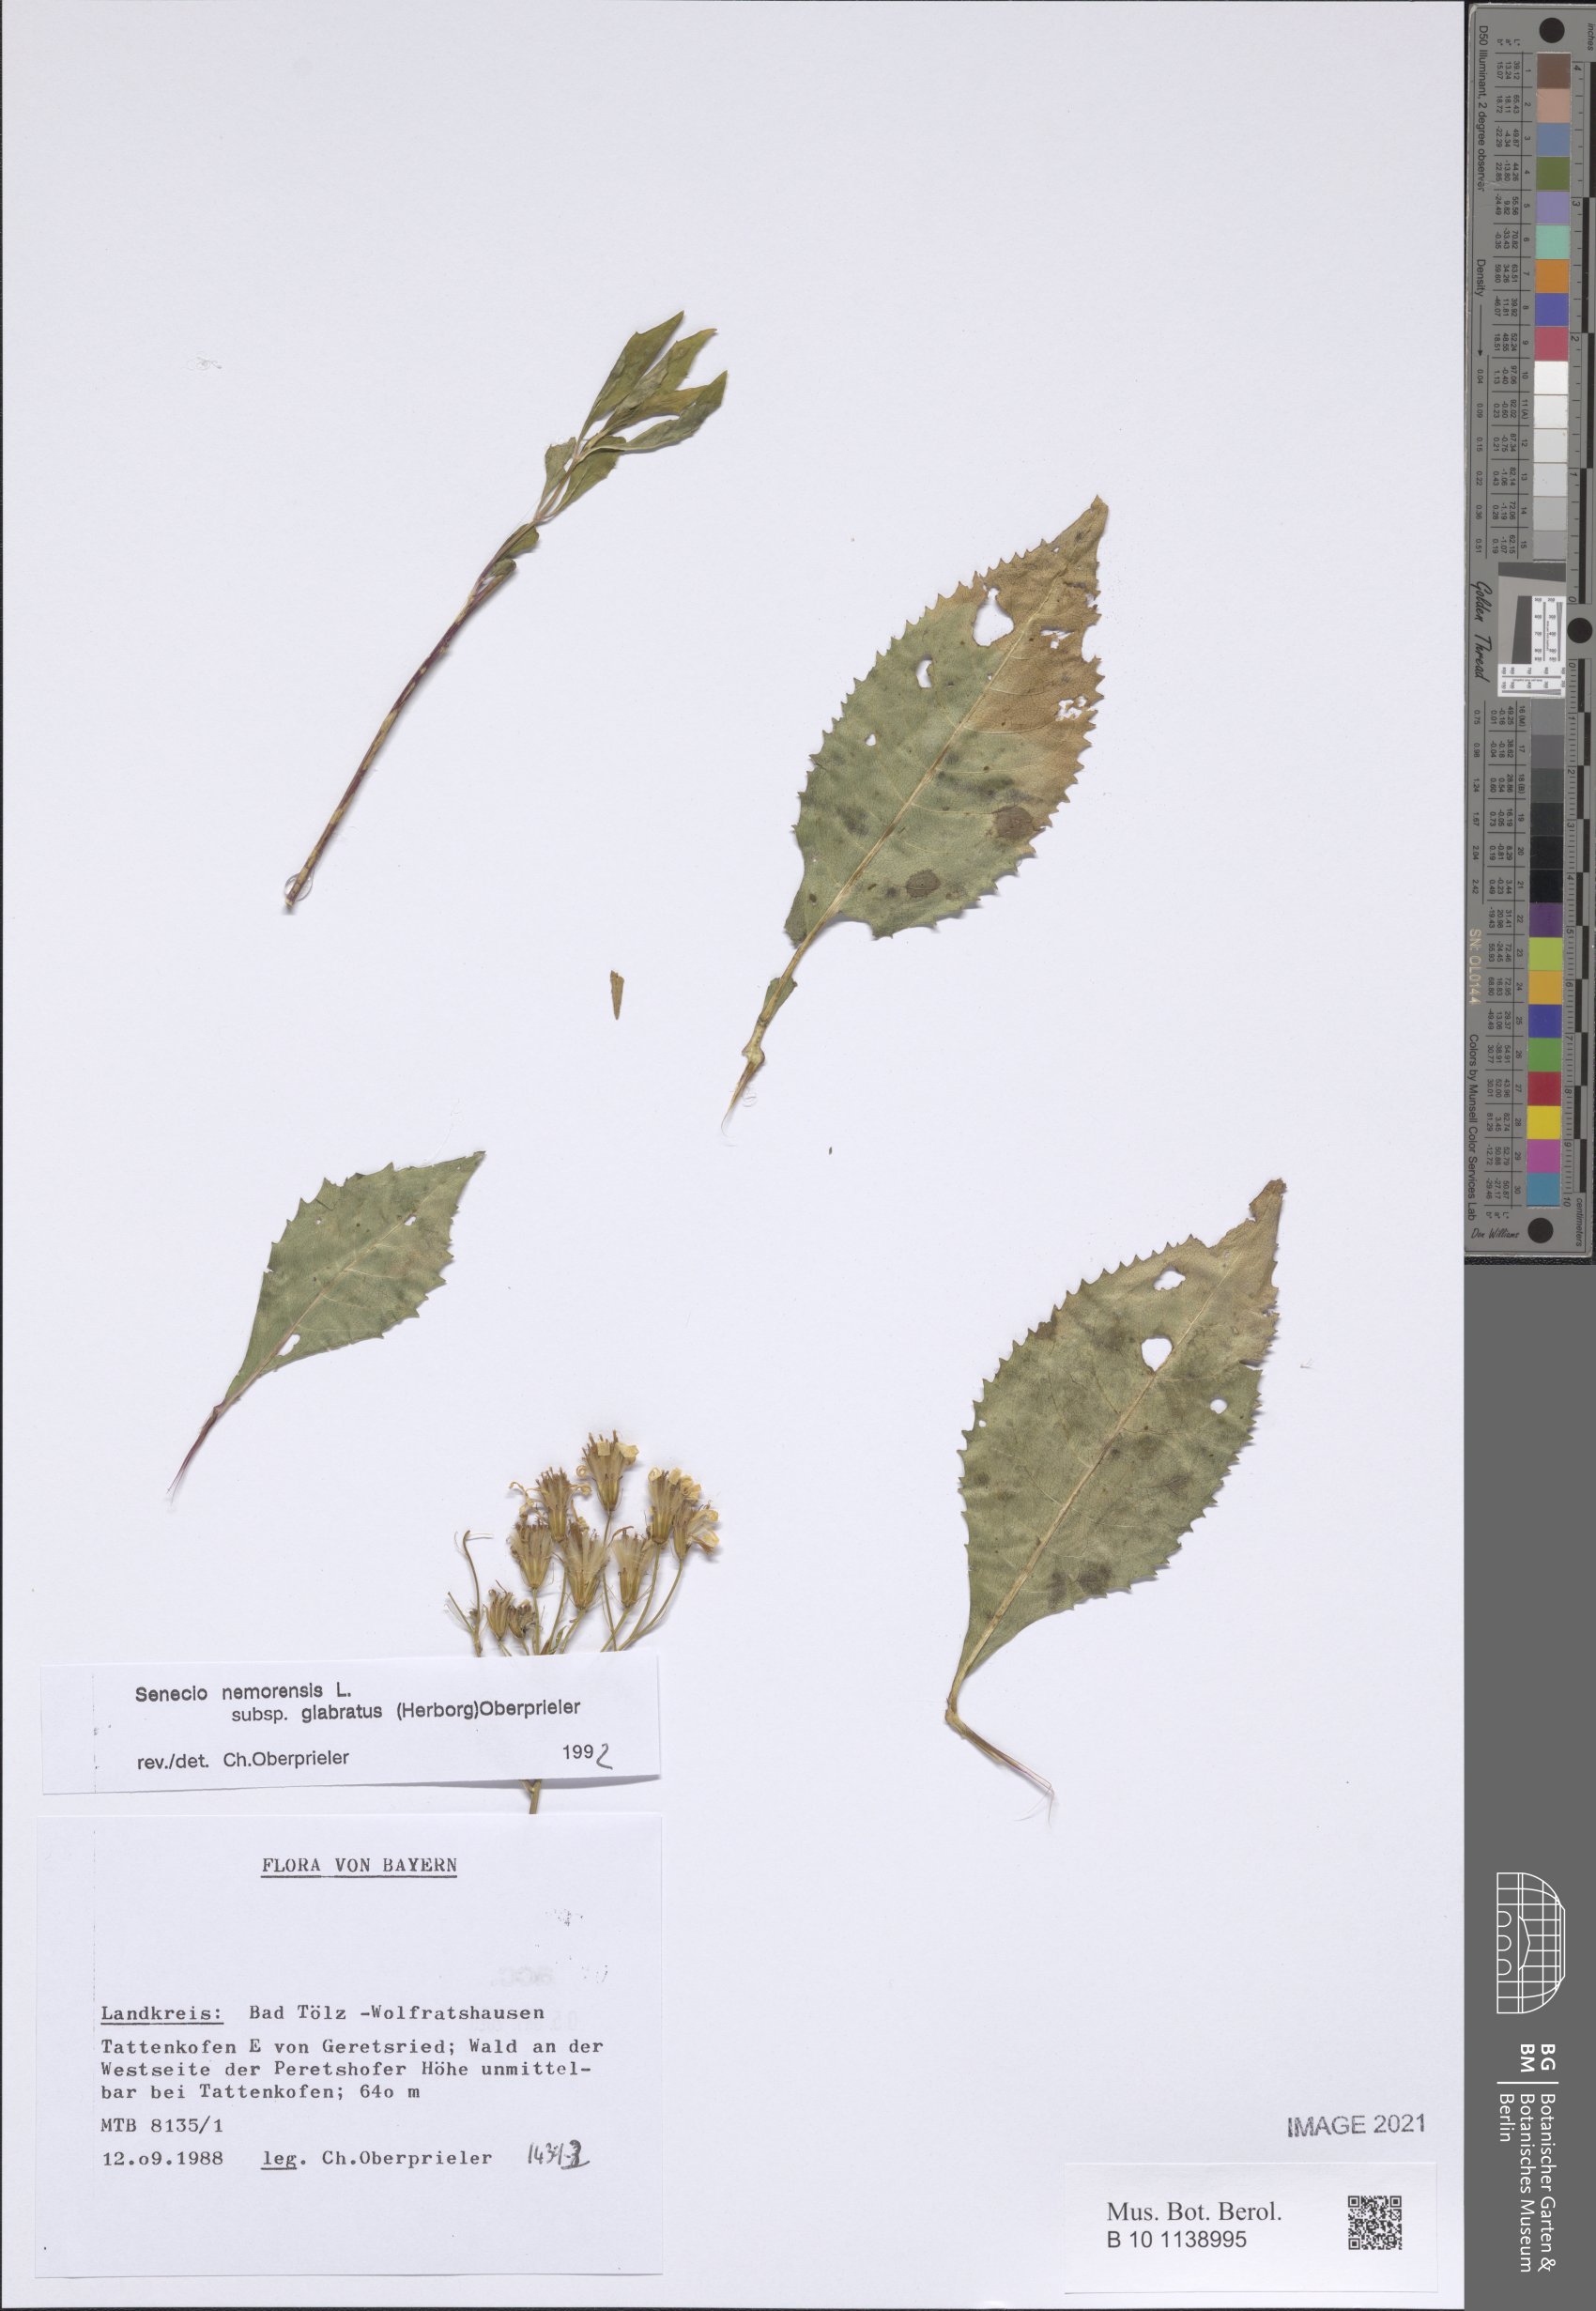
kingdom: Plantae
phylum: Tracheophyta
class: Magnoliopsida
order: Asterales
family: Asteraceae
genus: Senecio
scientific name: Senecio germanicus
